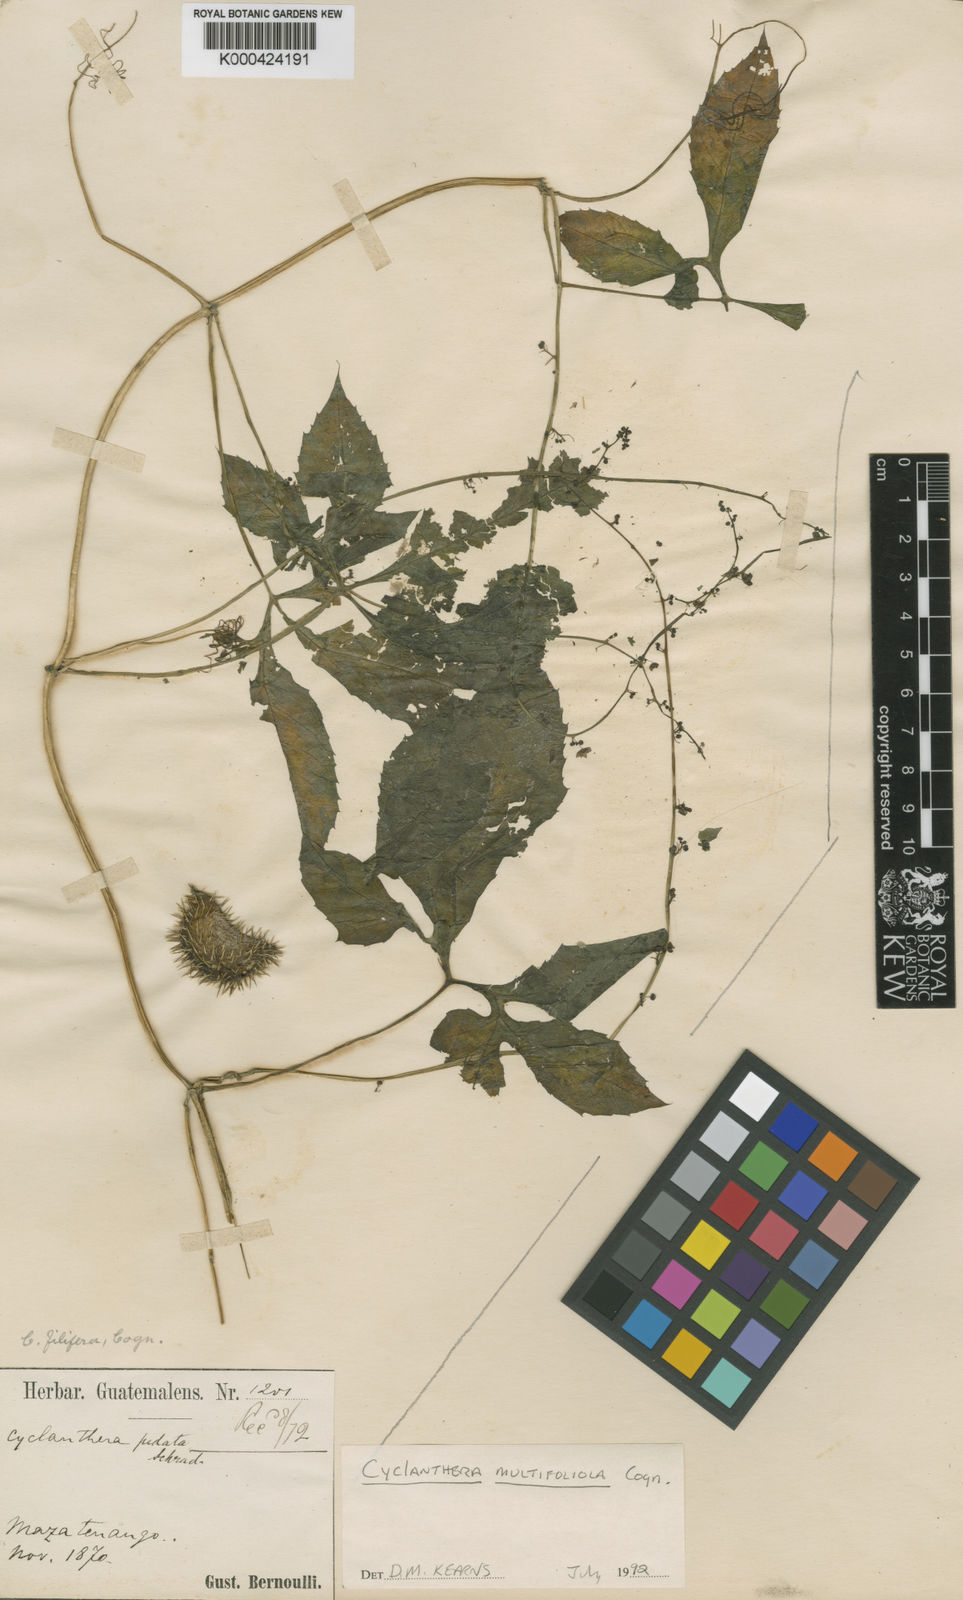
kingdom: Plantae
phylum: Tracheophyta
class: Magnoliopsida
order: Cucurbitales
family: Cucurbitaceae
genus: Cyclanthera
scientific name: Cyclanthera multifoliola
